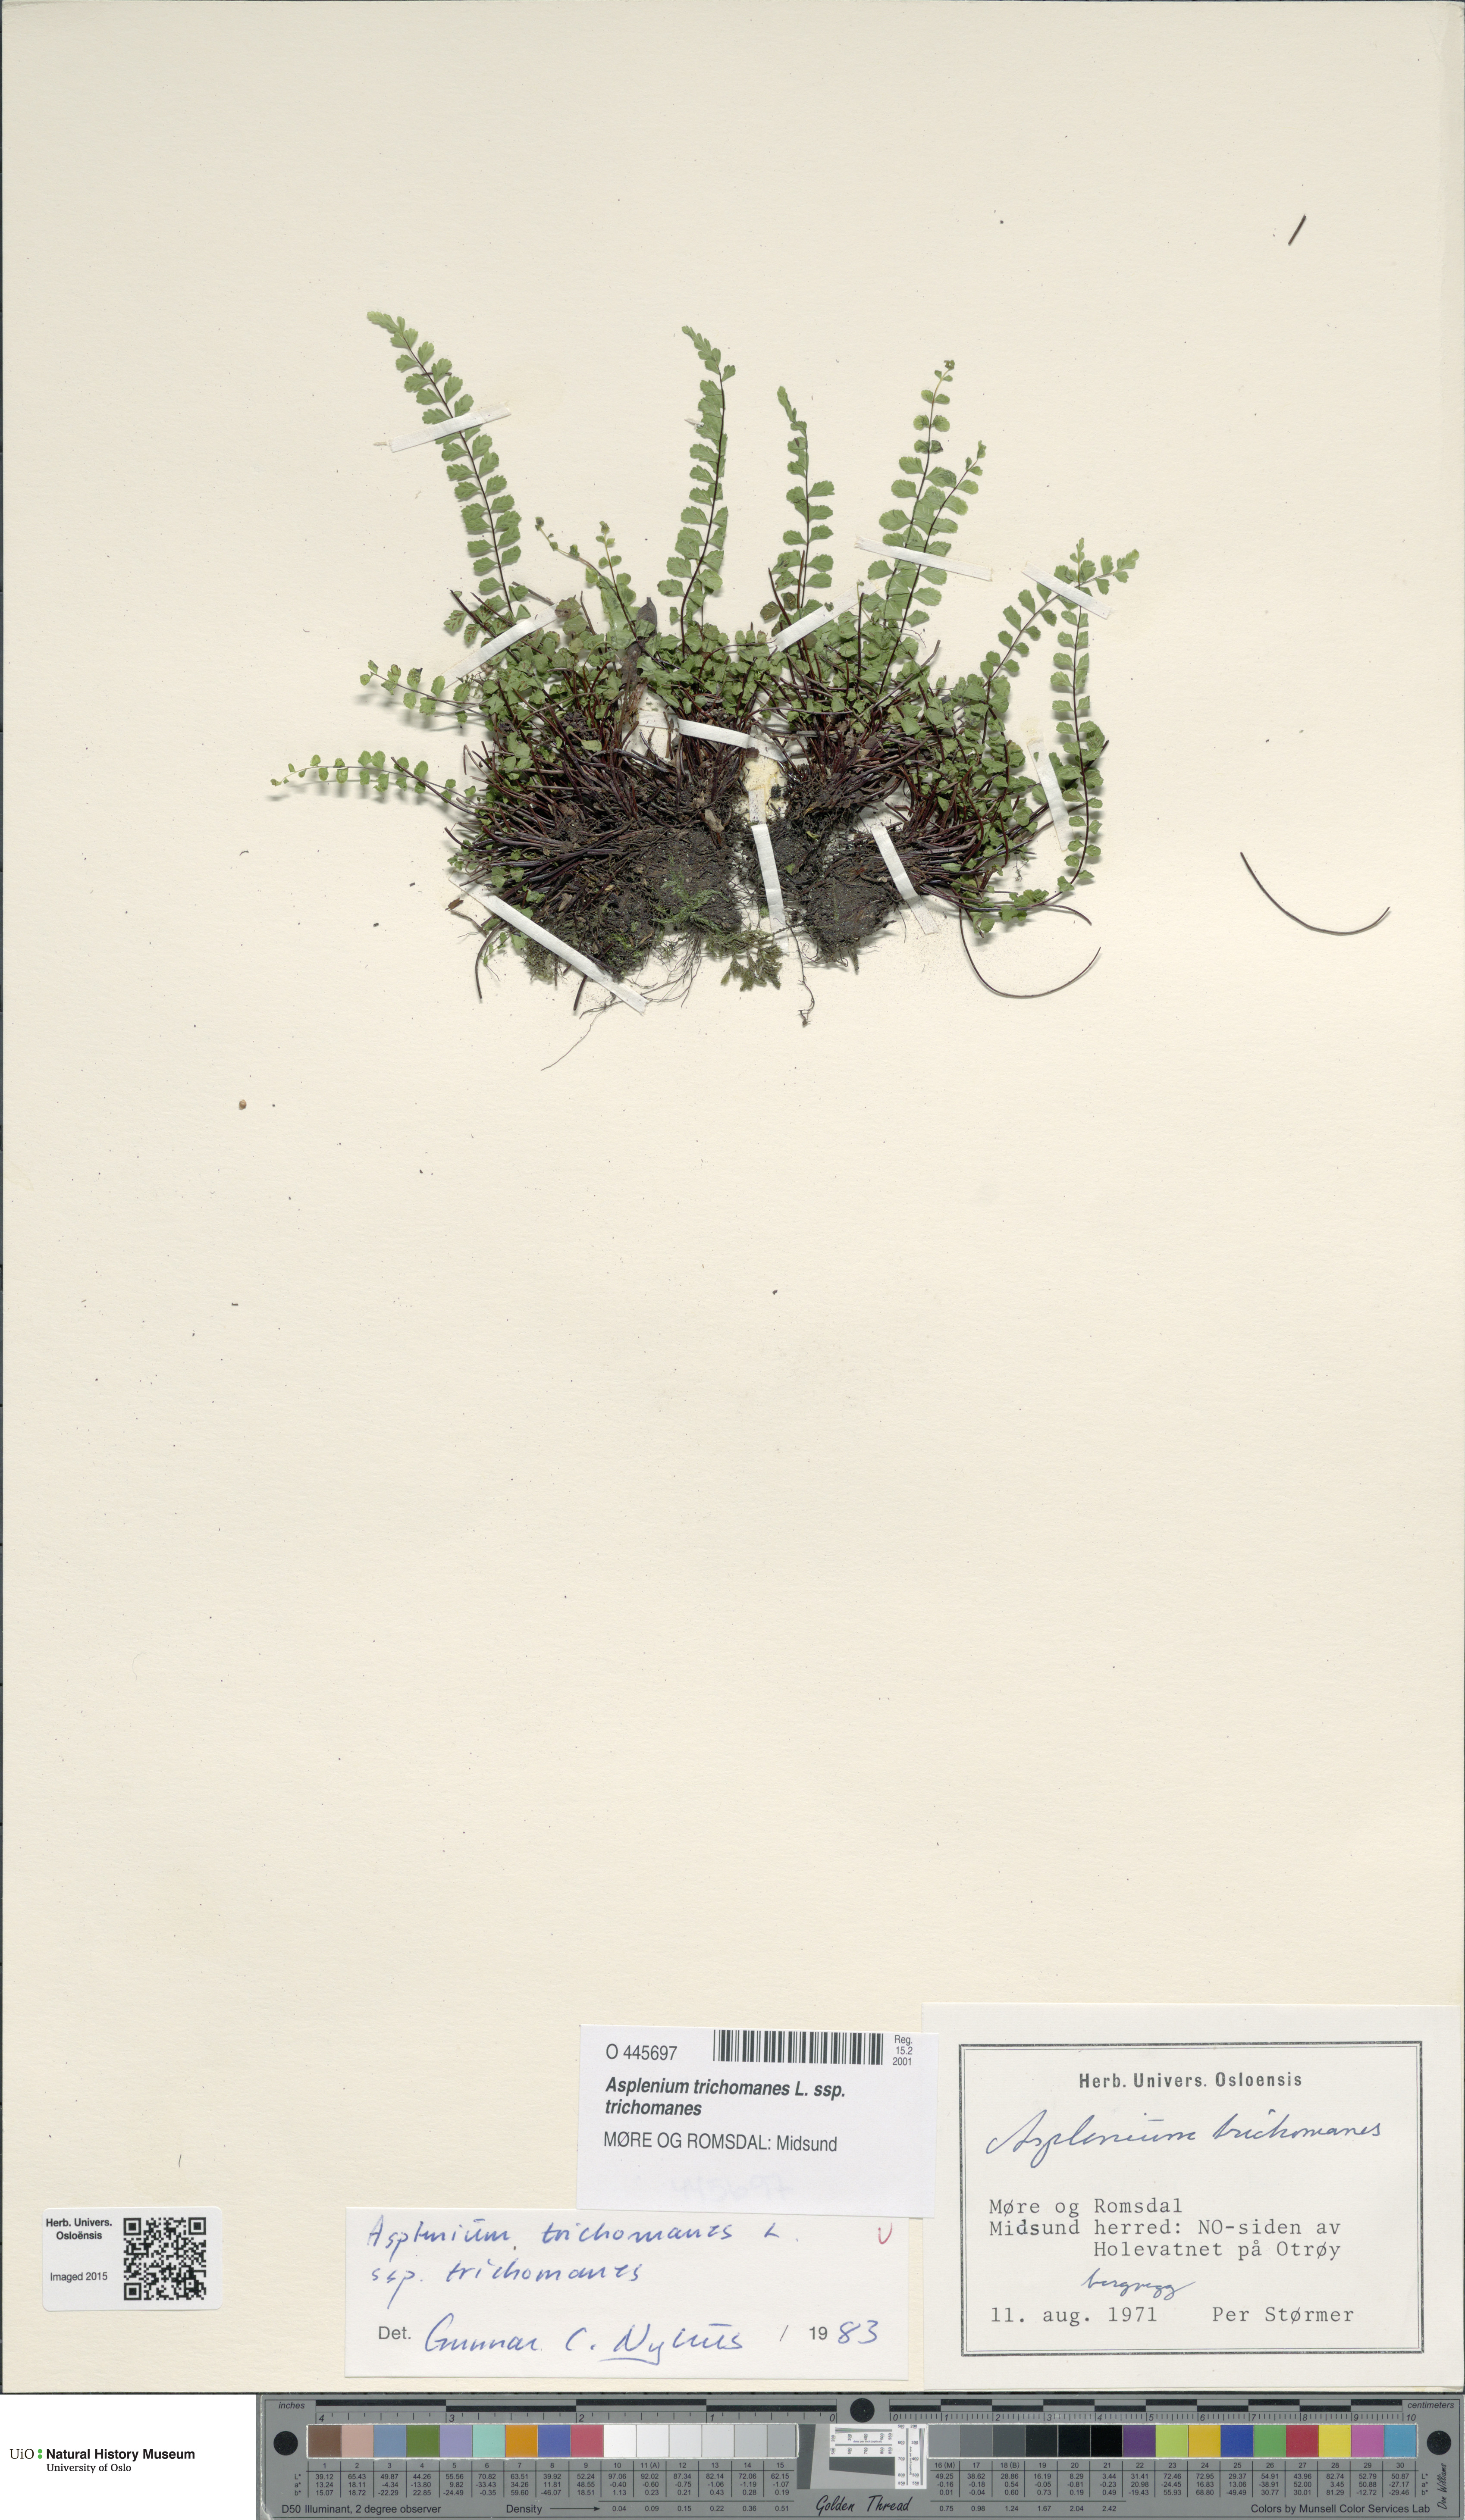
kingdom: Plantae
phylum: Tracheophyta
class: Polypodiopsida
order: Polypodiales
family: Aspleniaceae
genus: Asplenium
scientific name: Asplenium trichomanes
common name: Maidenhair spleenwort
